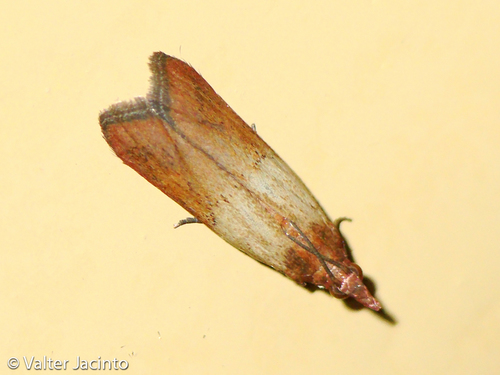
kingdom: Animalia
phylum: Arthropoda
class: Insecta
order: Lepidoptera
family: Pyralidae
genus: Plodia
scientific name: Plodia interpunctella
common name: Indian meal moth
